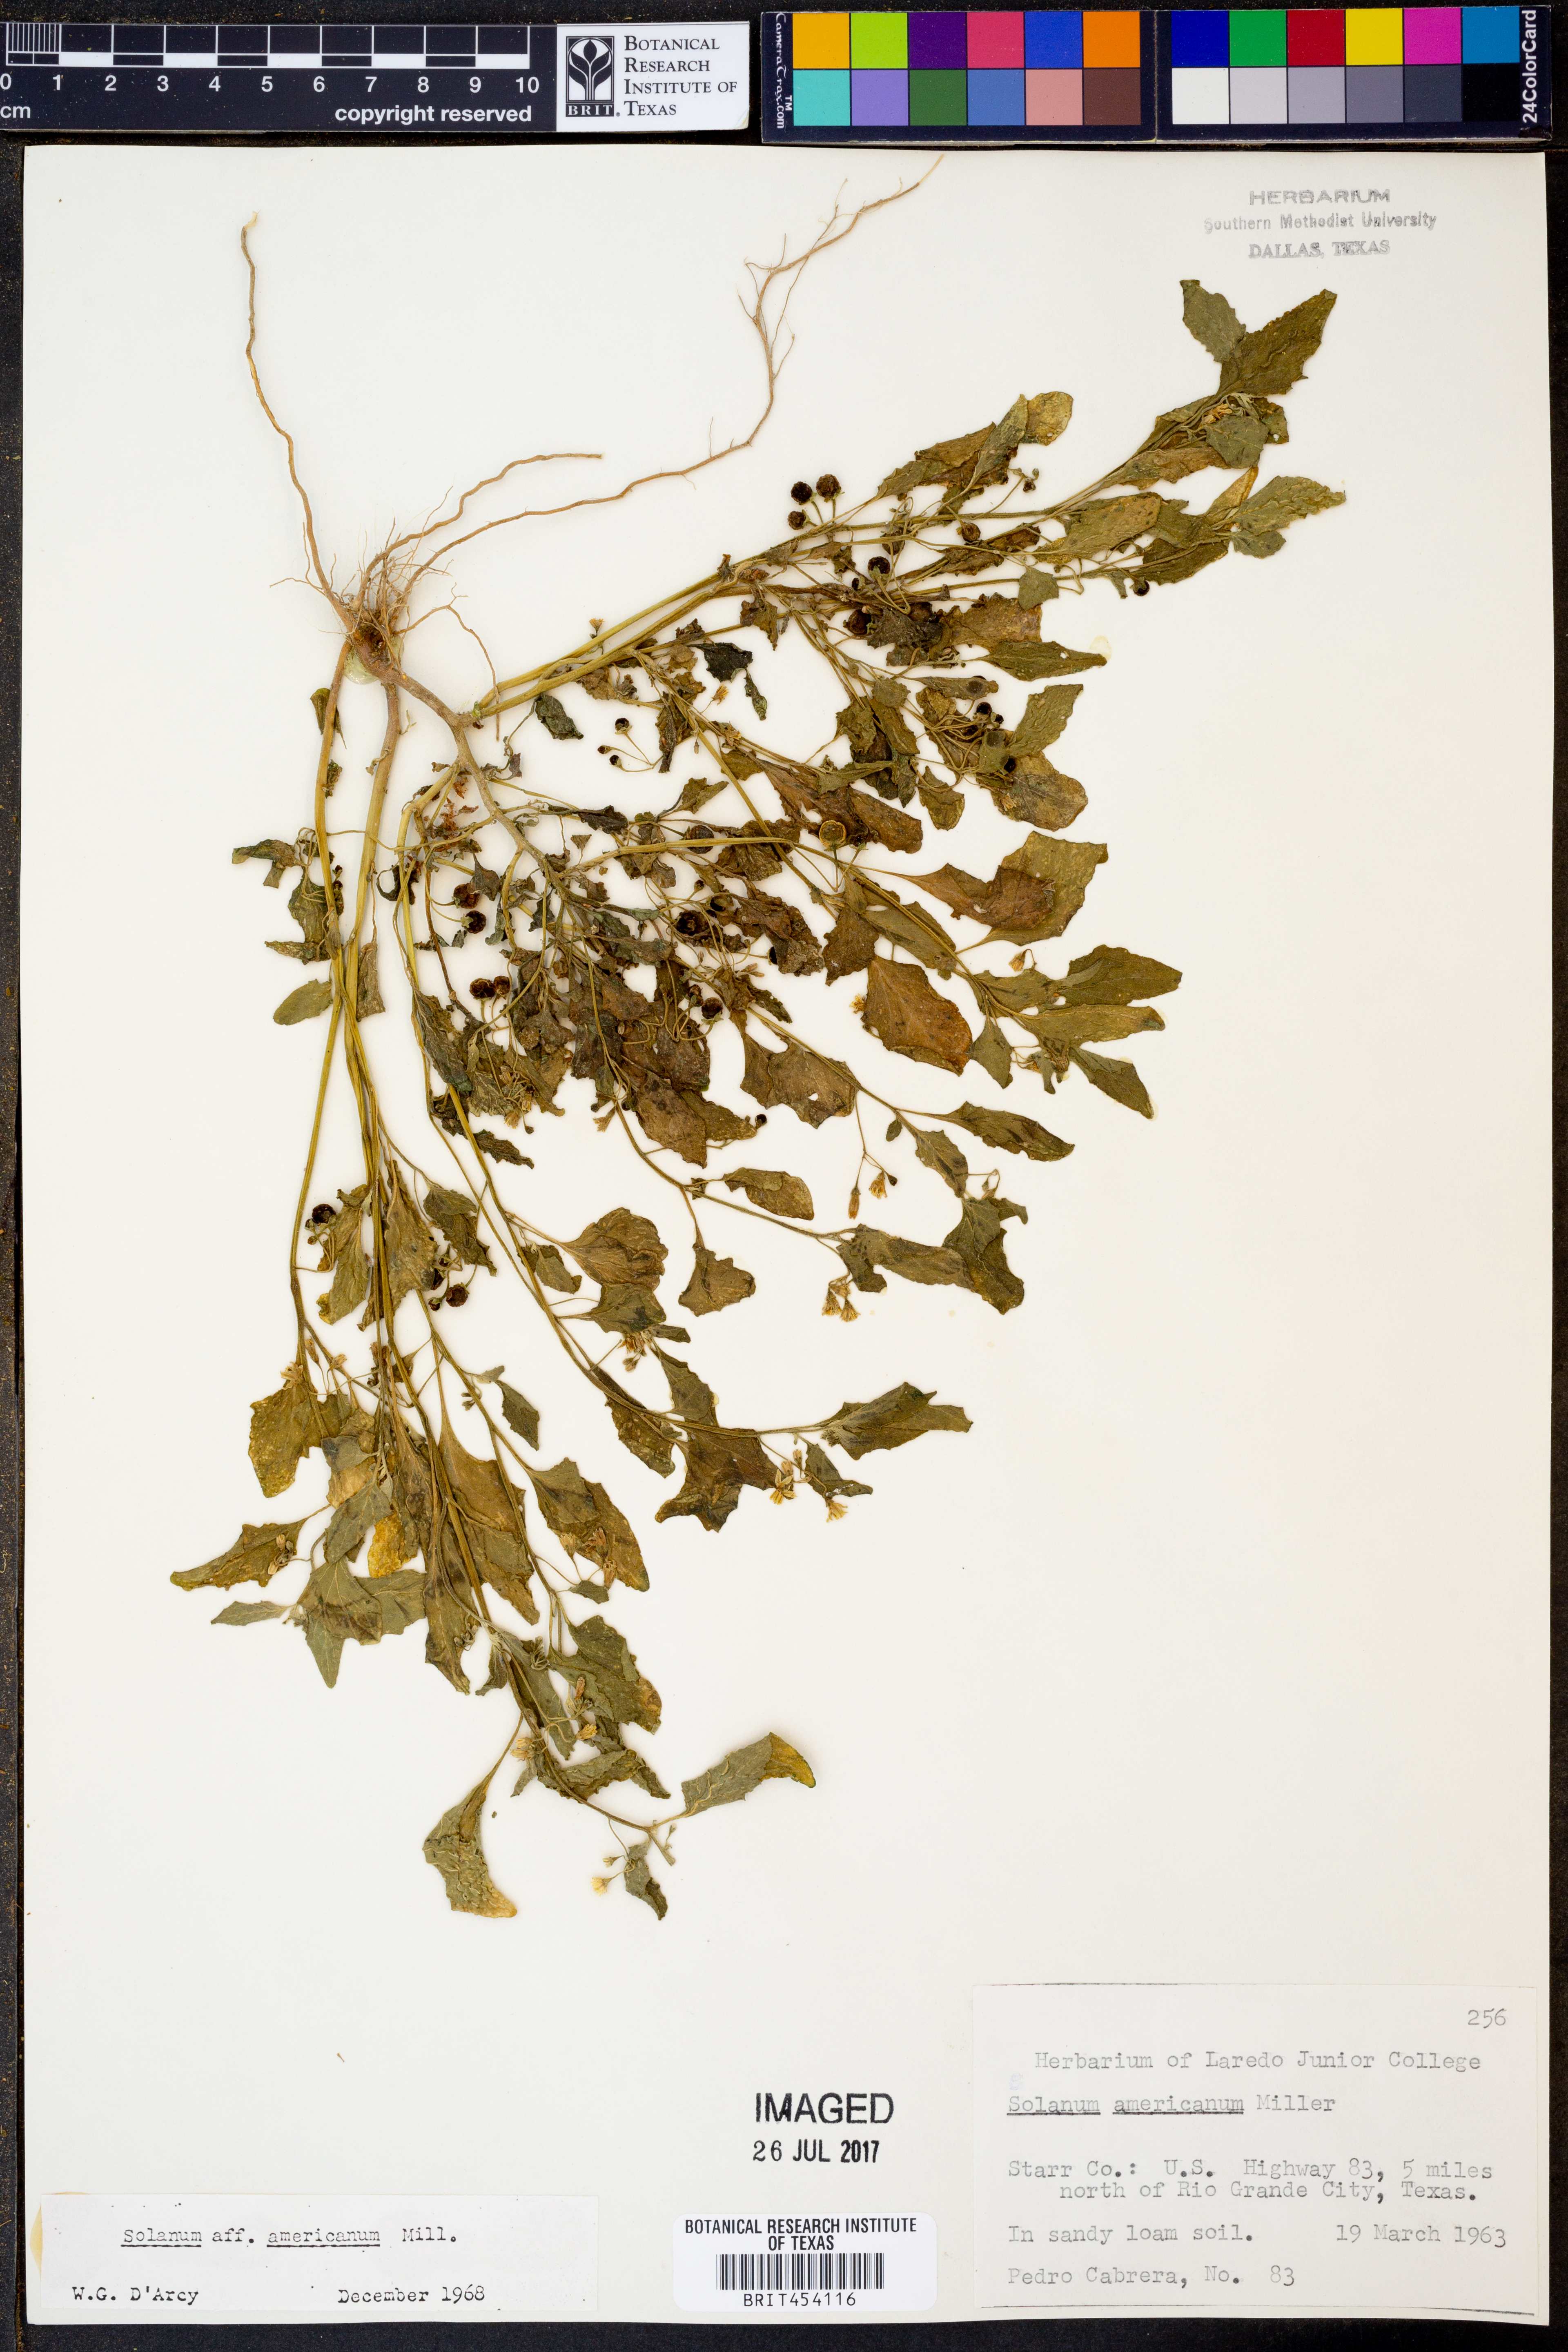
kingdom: Plantae
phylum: Tracheophyta
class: Magnoliopsida
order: Solanales
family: Solanaceae
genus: Solanum
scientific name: Solanum americanum
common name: American black nightshade
